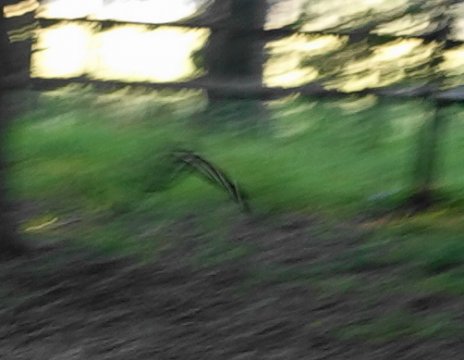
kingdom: Animalia
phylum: Arthropoda
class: Insecta
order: Lepidoptera
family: Nymphalidae
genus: Heliconius
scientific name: Heliconius charithonia
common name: Zebra Longwing
